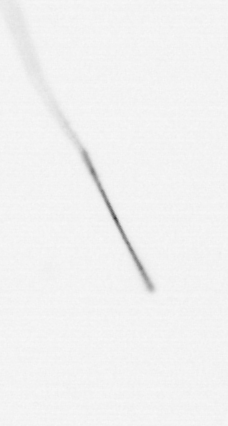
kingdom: Chromista
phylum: Ochrophyta
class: Bacillariophyceae
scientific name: Bacillariophyceae
